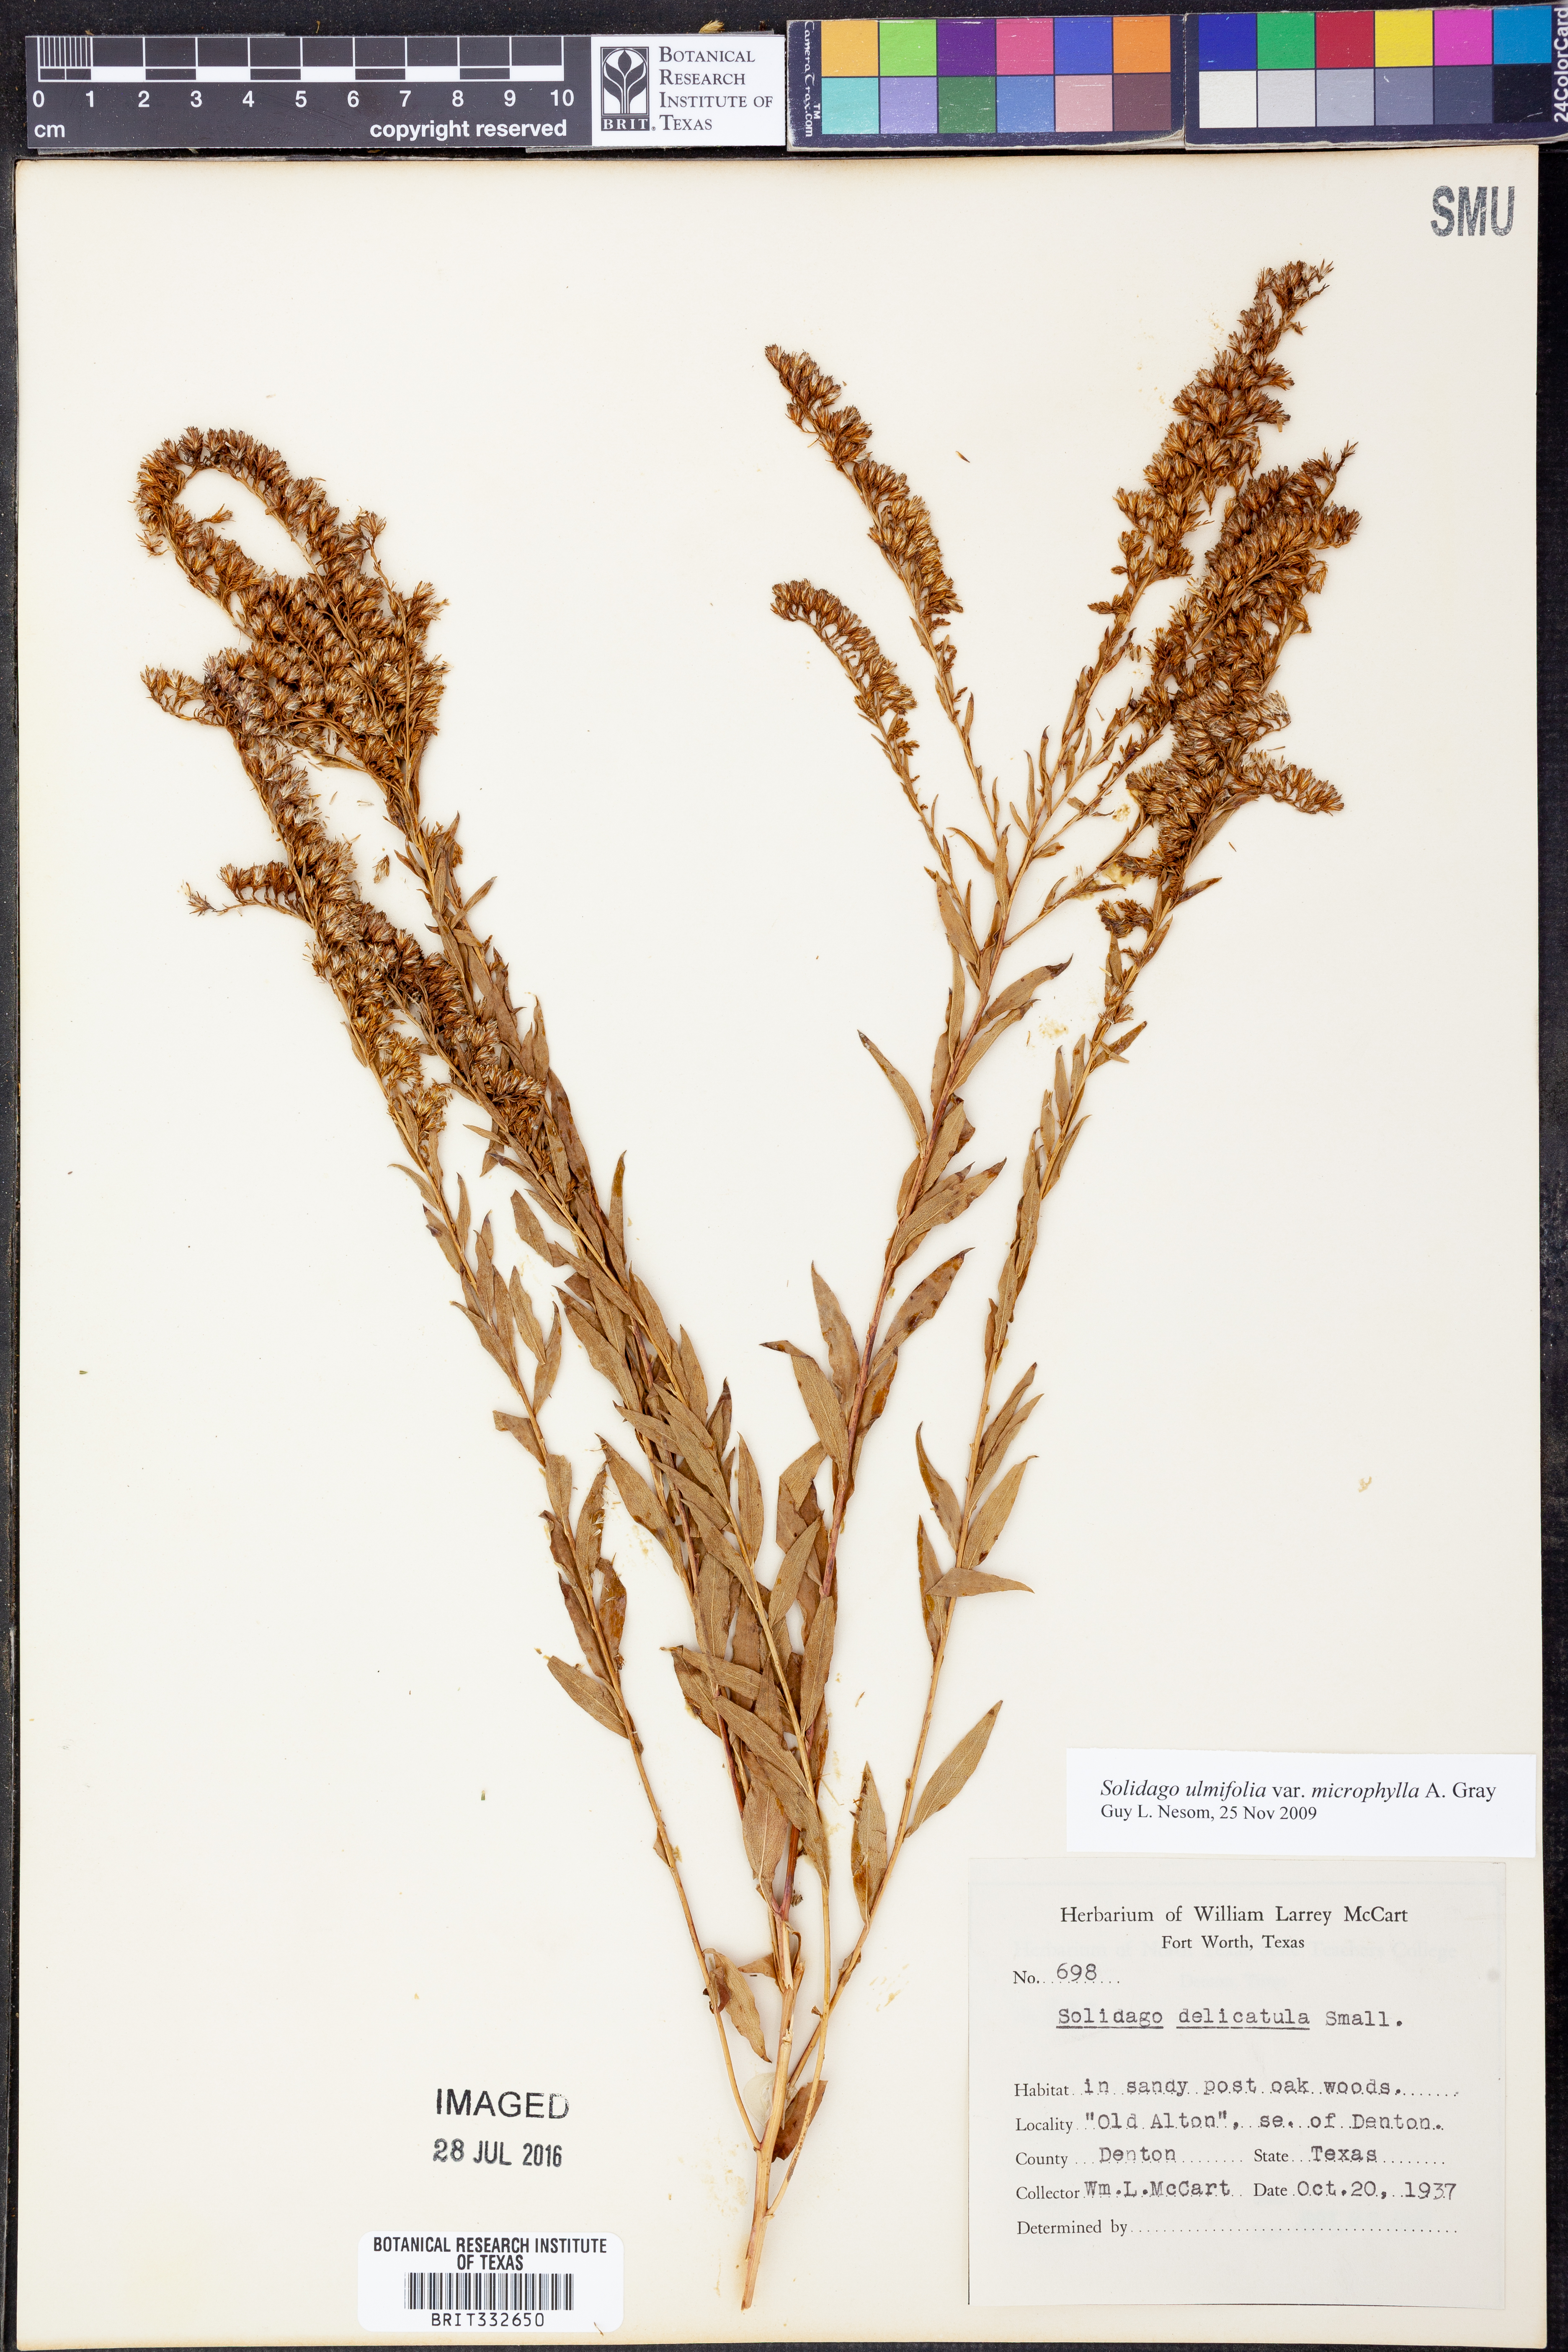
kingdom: Plantae
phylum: Tracheophyta
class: Magnoliopsida
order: Asterales
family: Asteraceae
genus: Solidago
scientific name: Solidago delicatula
